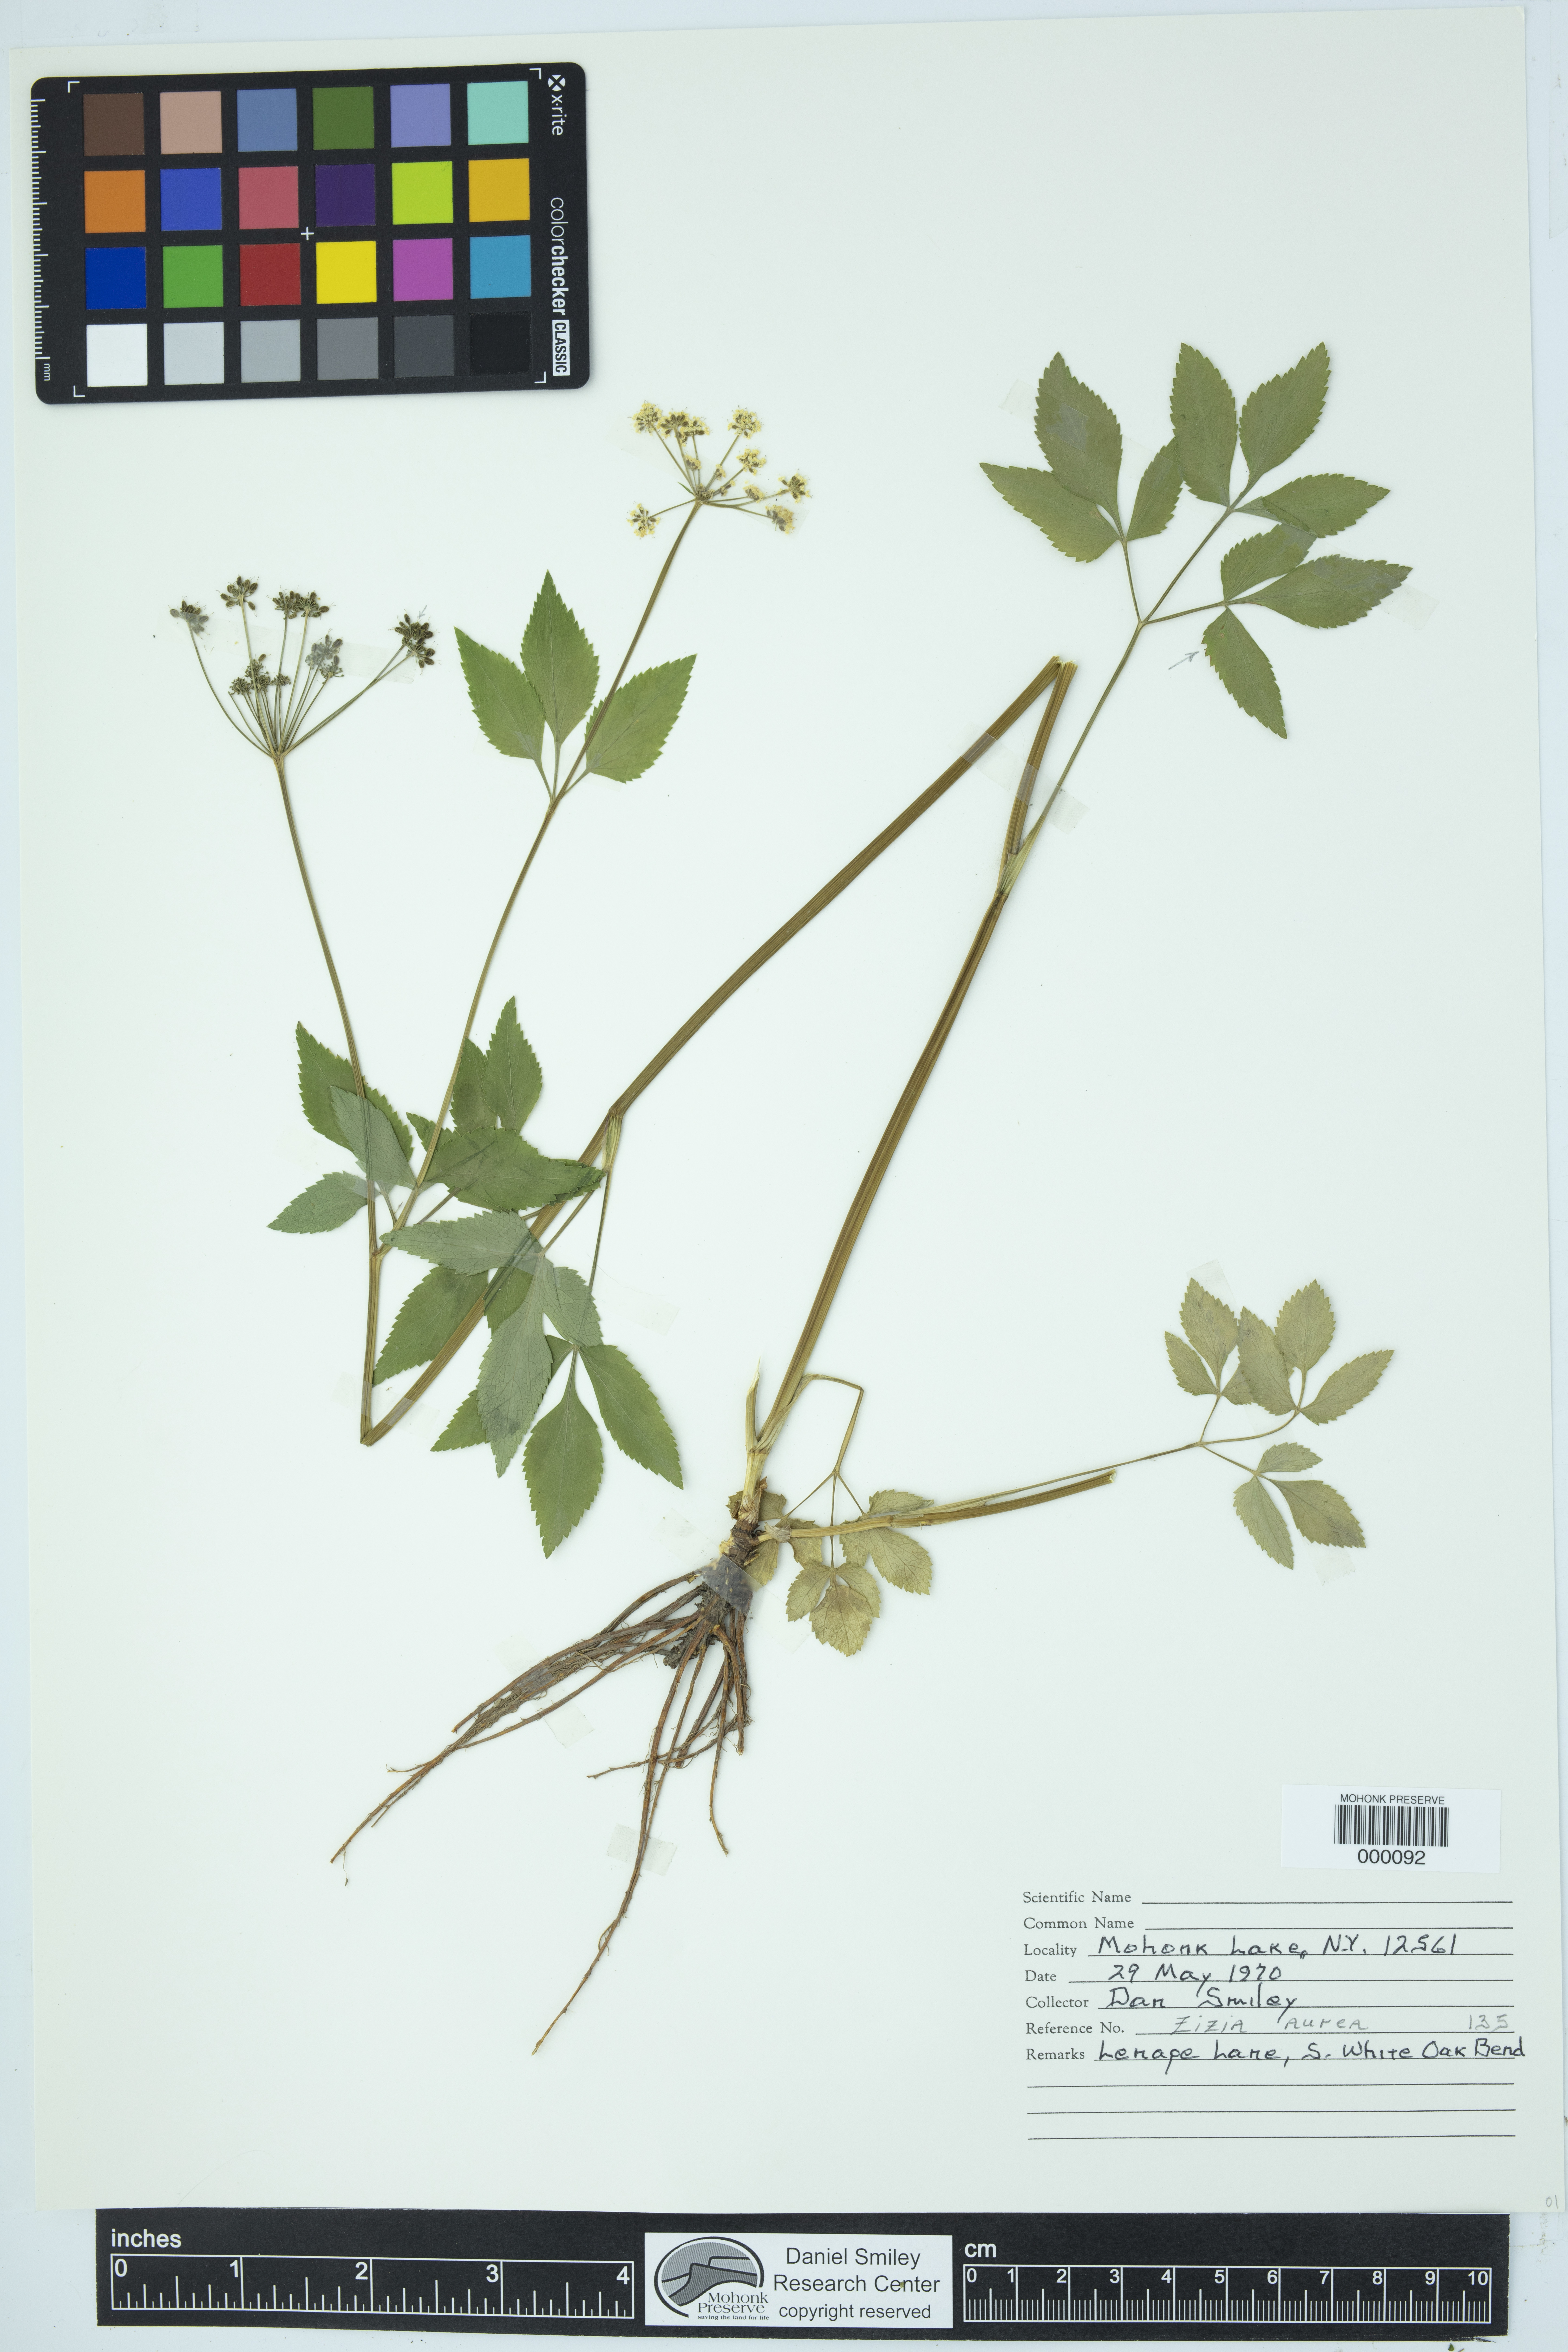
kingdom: Plantae
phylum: Tracheophyta
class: Magnoliopsida
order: Apiales
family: Apiaceae
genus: Zizia
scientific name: Zizia aurea
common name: Golden alexanders
